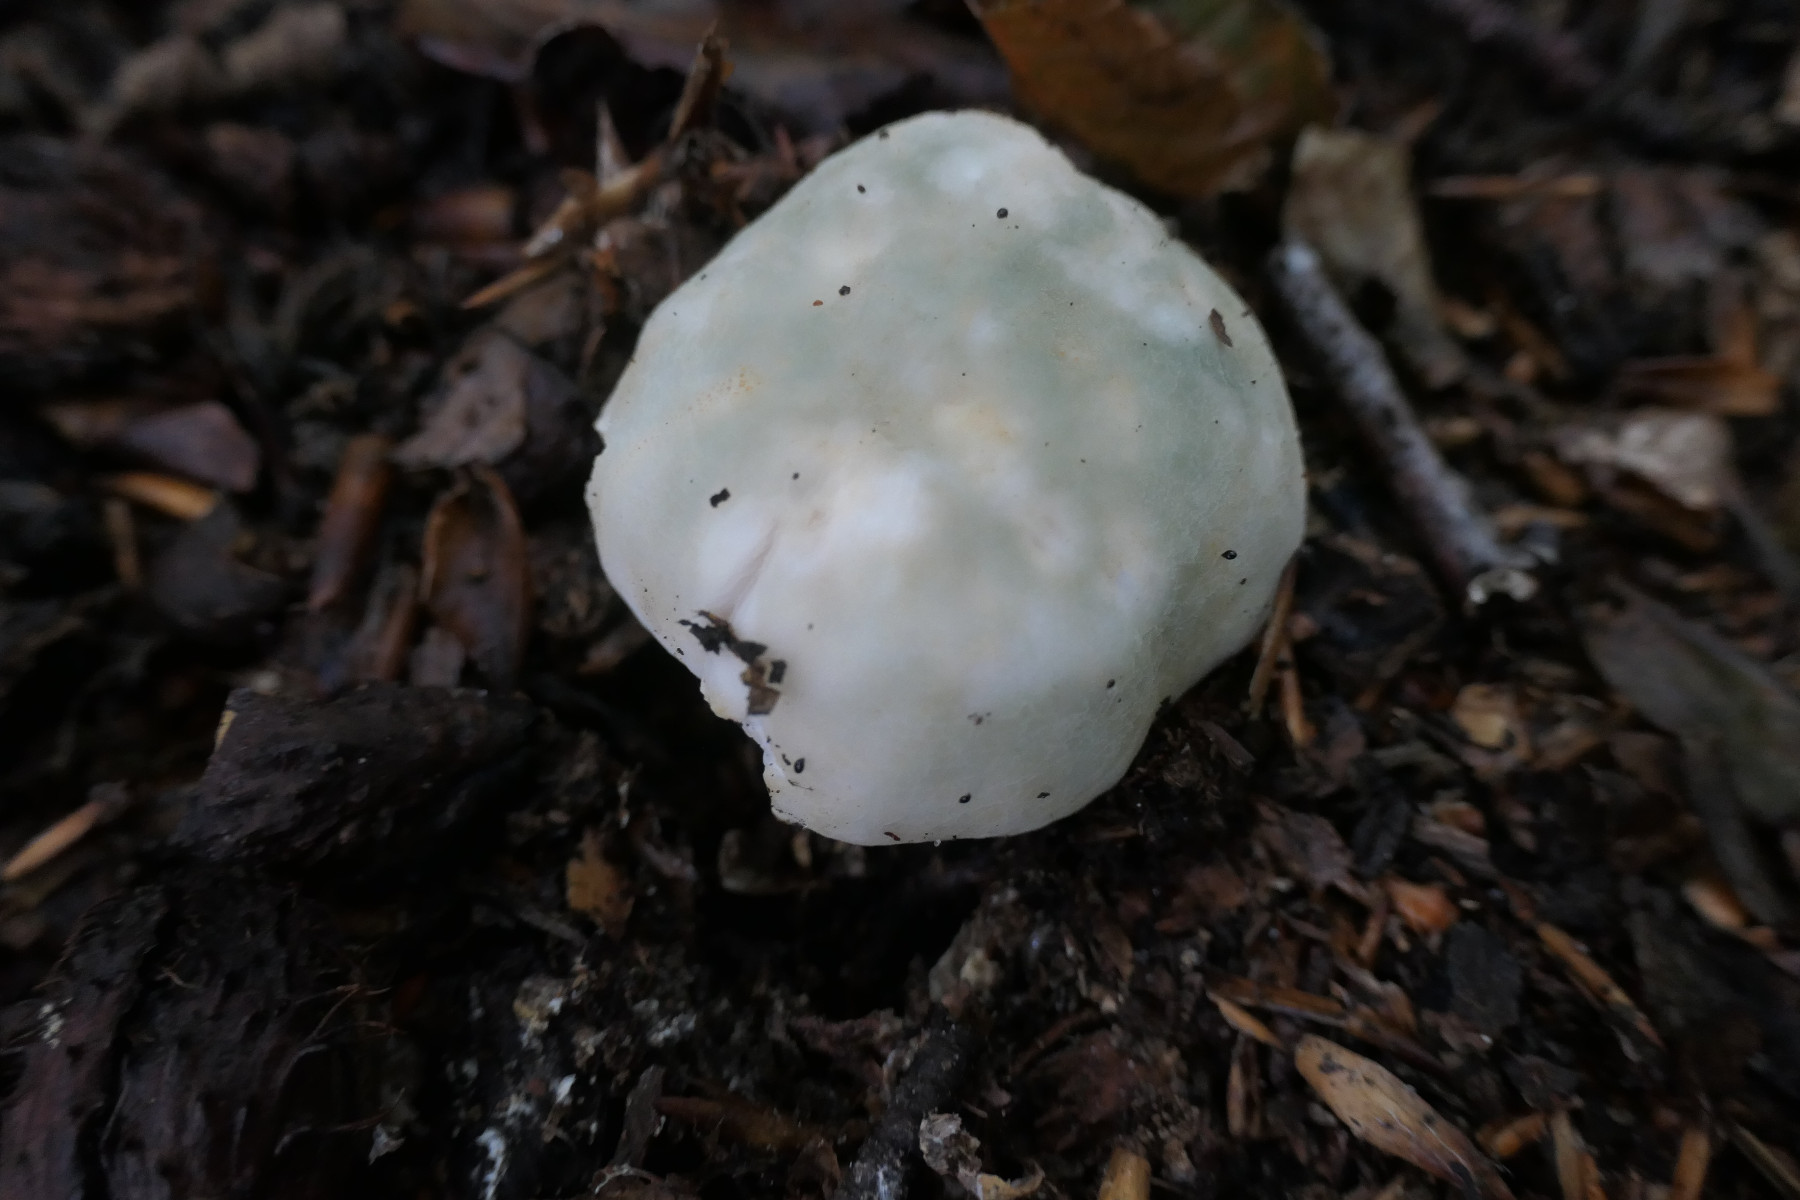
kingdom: Fungi
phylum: Basidiomycota
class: Agaricomycetes
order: Russulales
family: Russulaceae
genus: Russula
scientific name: Russula virescens
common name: spanskgrøn skørhat
